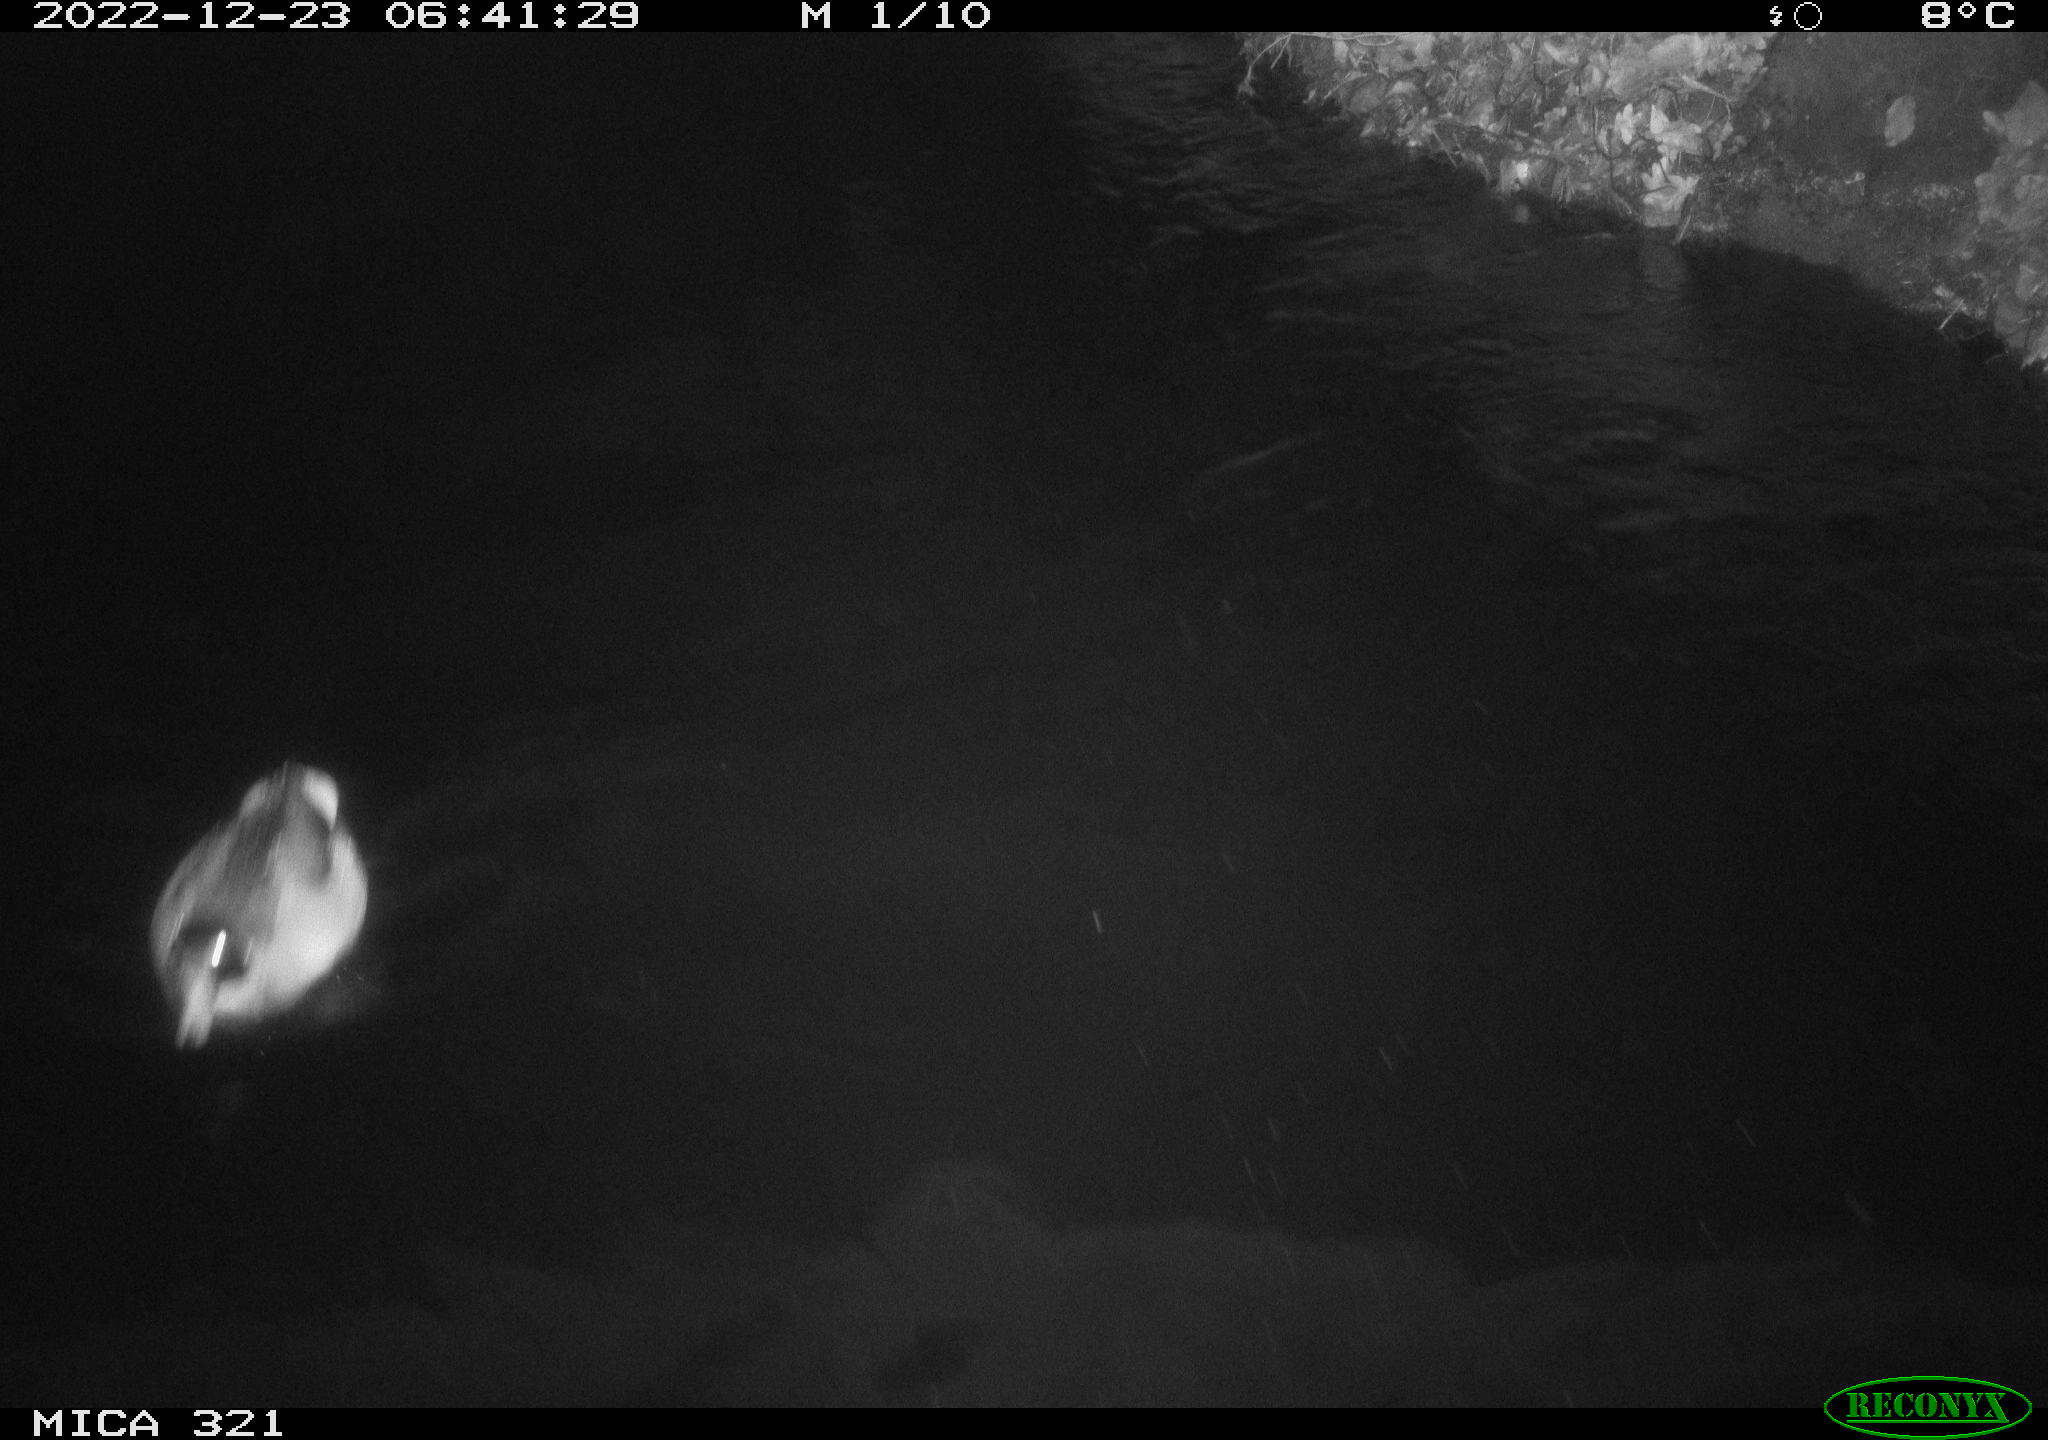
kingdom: Animalia
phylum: Chordata
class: Aves
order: Anseriformes
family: Anatidae
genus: Anas
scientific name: Anas
